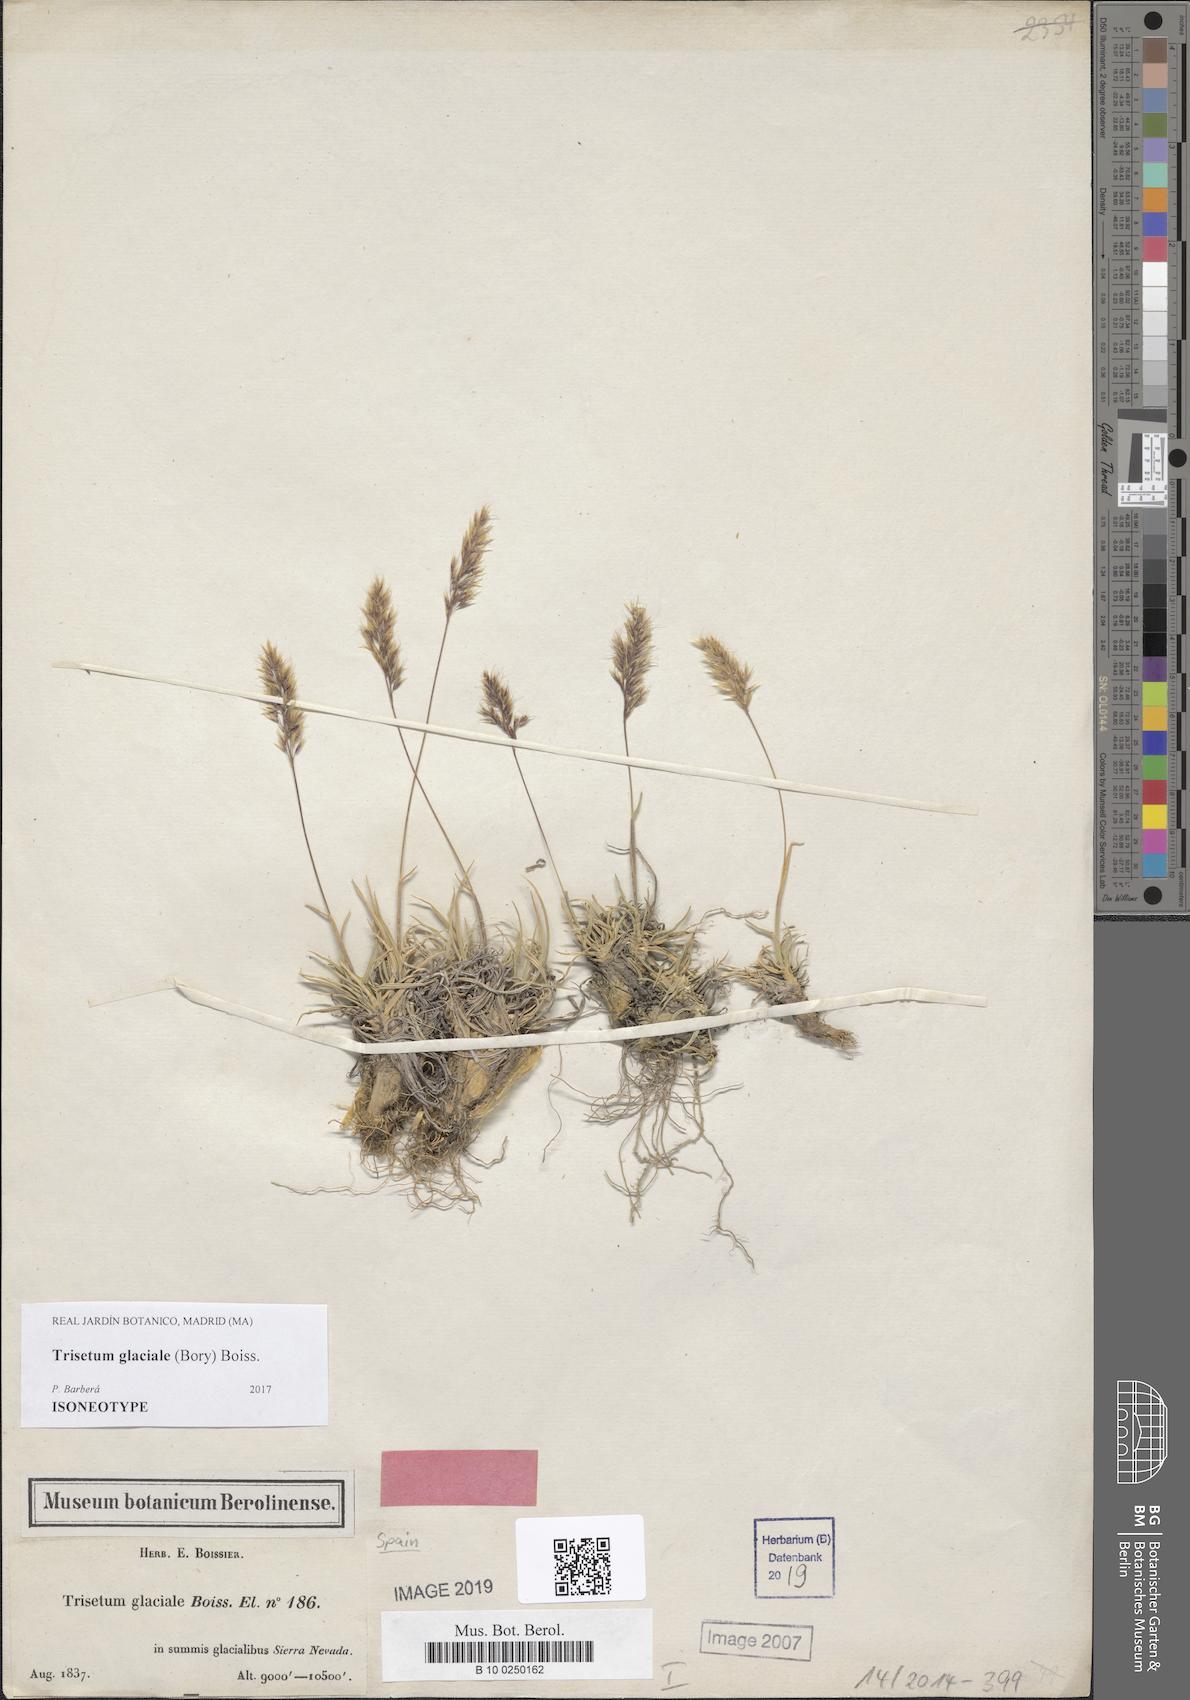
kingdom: Plantae
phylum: Tracheophyta
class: Liliopsida
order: Poales
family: Poaceae
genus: Acrospelion
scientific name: Acrospelion glaciale
